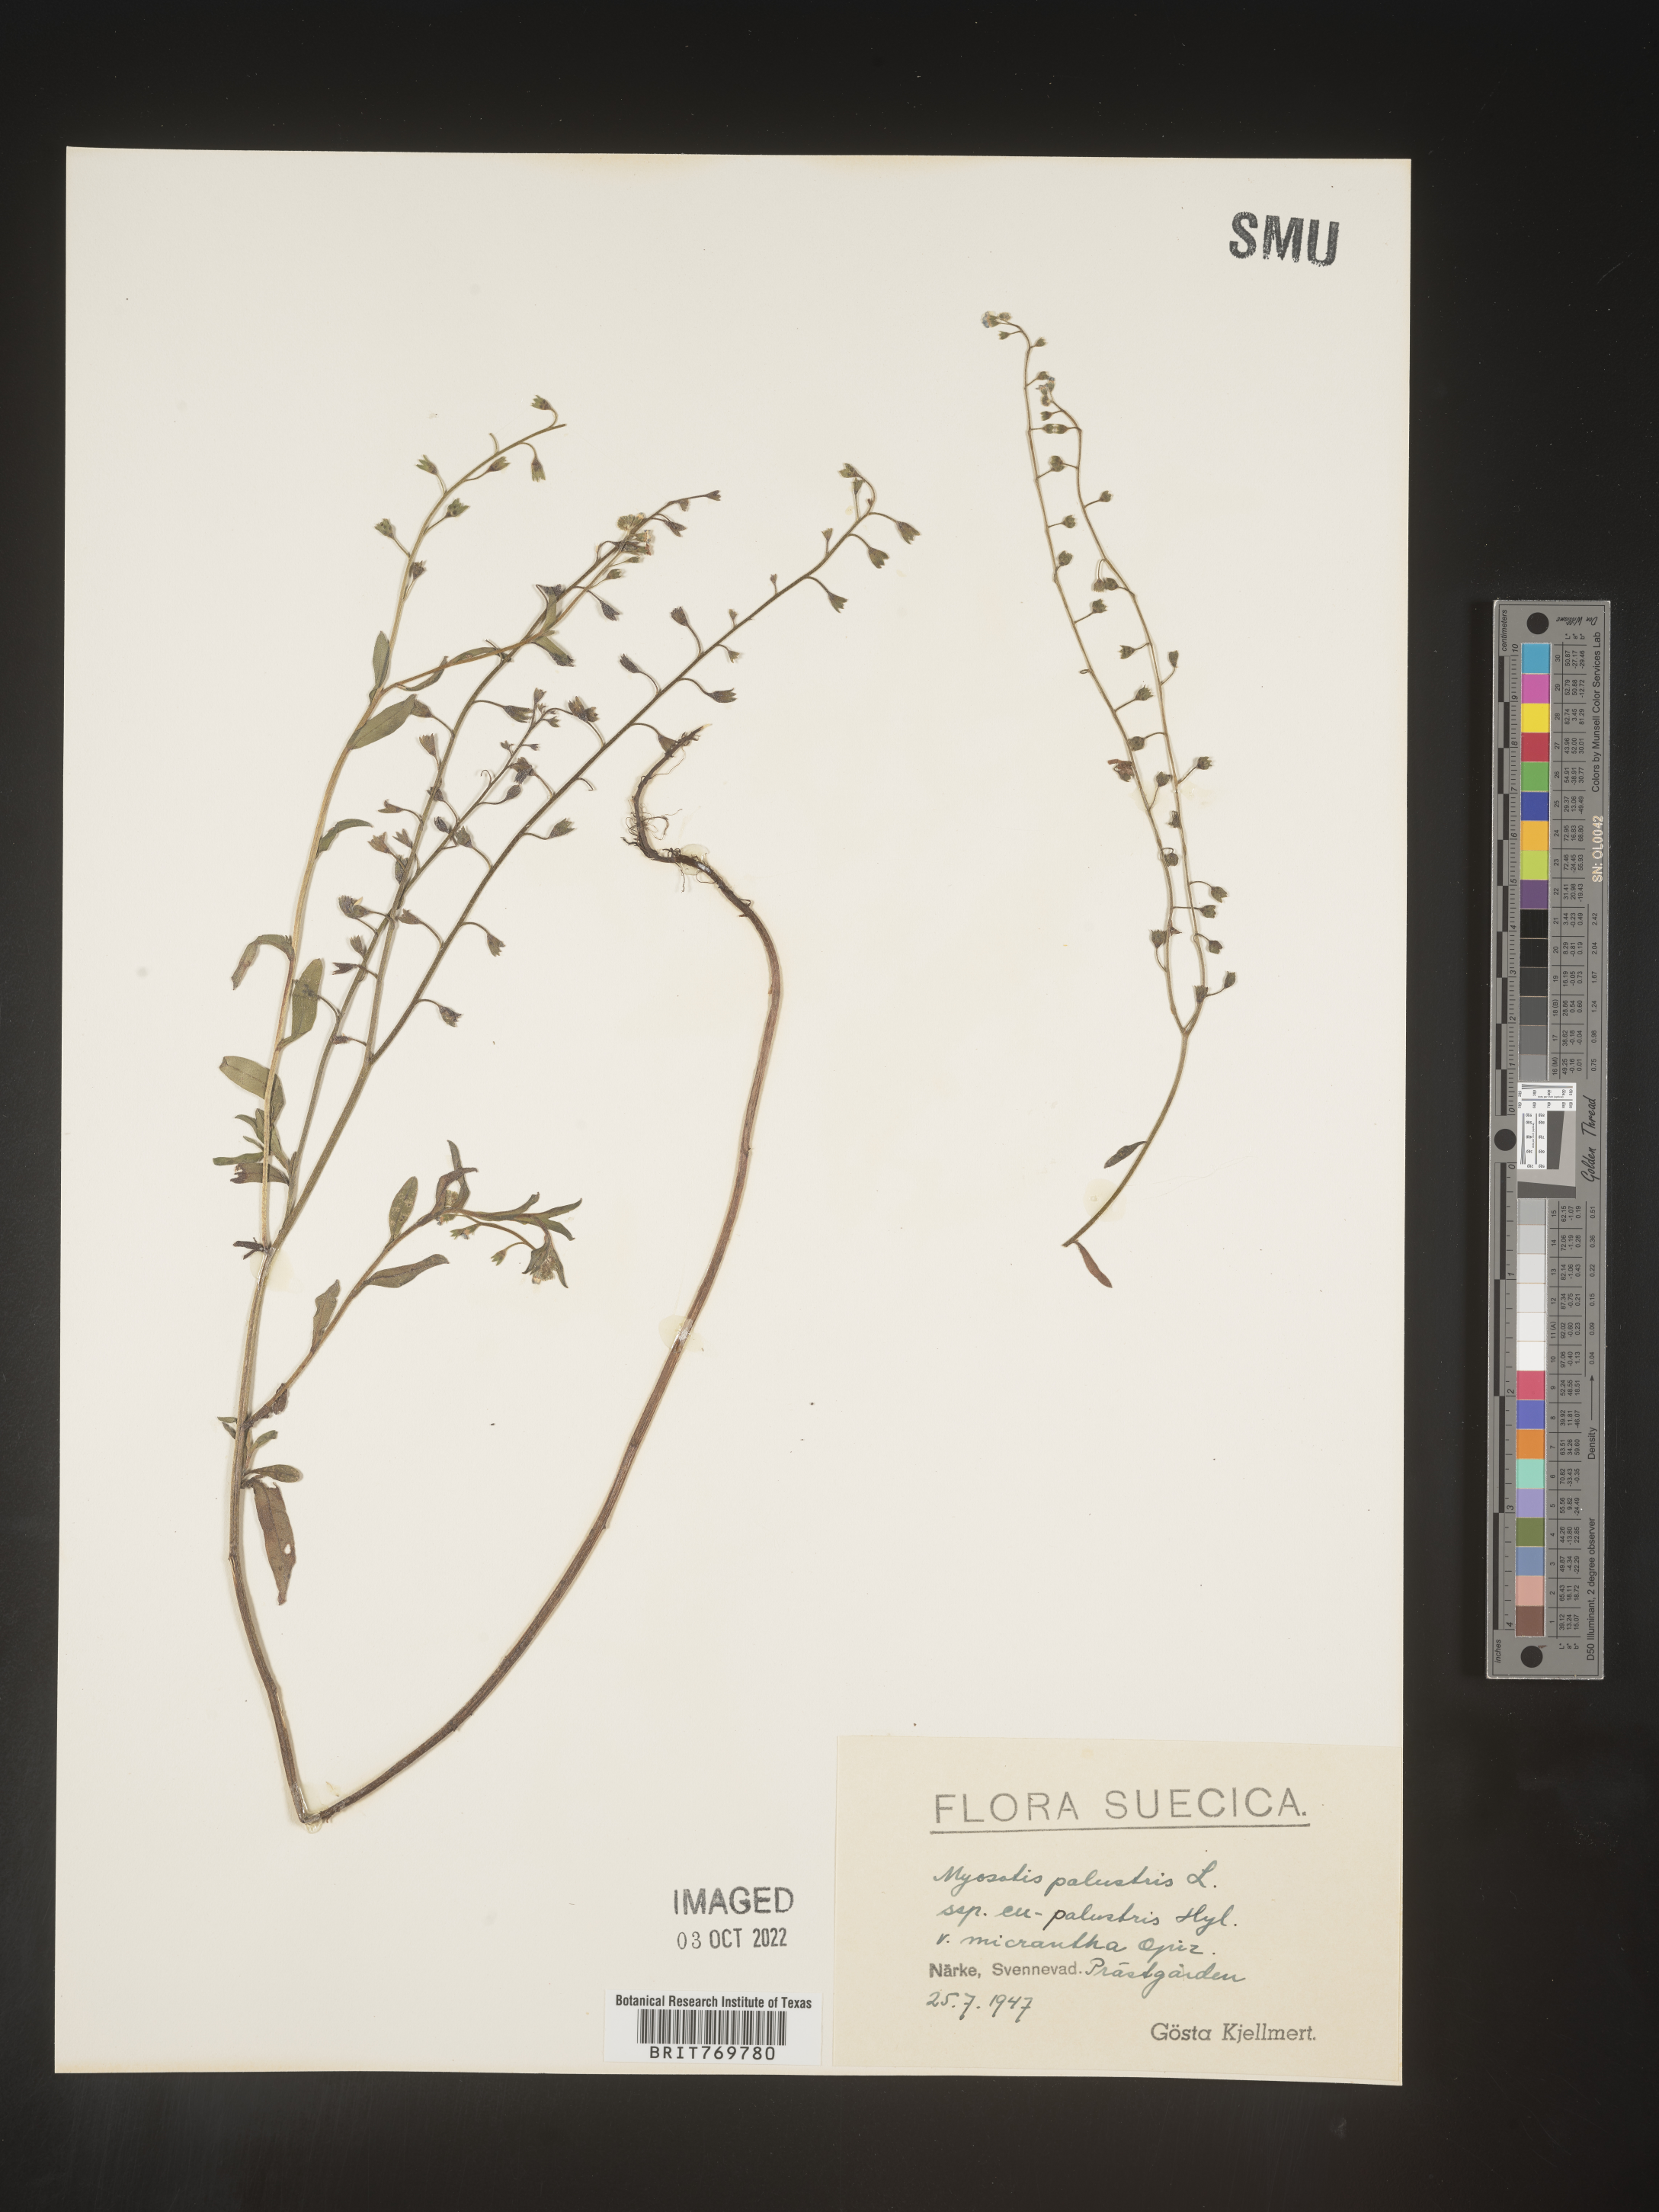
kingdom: Plantae
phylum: Tracheophyta
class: Magnoliopsida
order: Boraginales
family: Boraginaceae
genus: Myosotis
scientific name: Myosotis
